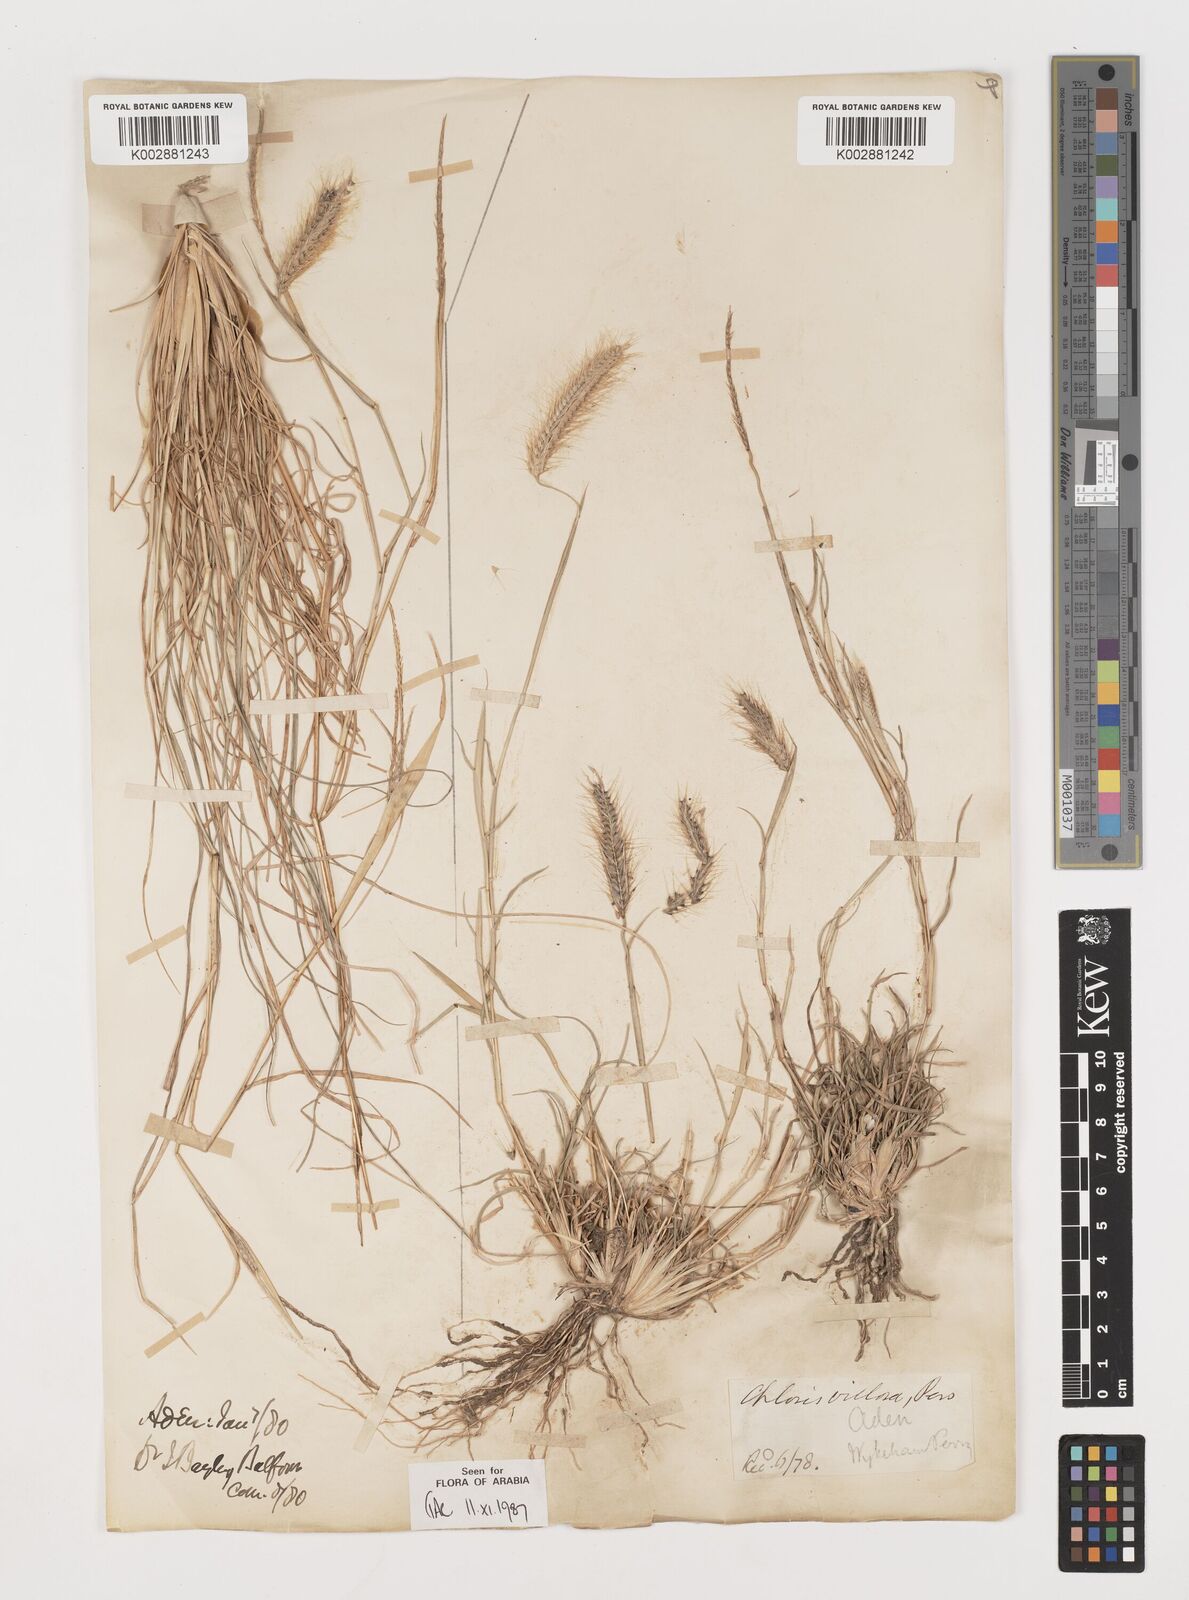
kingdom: Plantae
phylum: Tracheophyta
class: Liliopsida
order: Poales
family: Poaceae
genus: Tetrapogon
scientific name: Tetrapogon villosus
